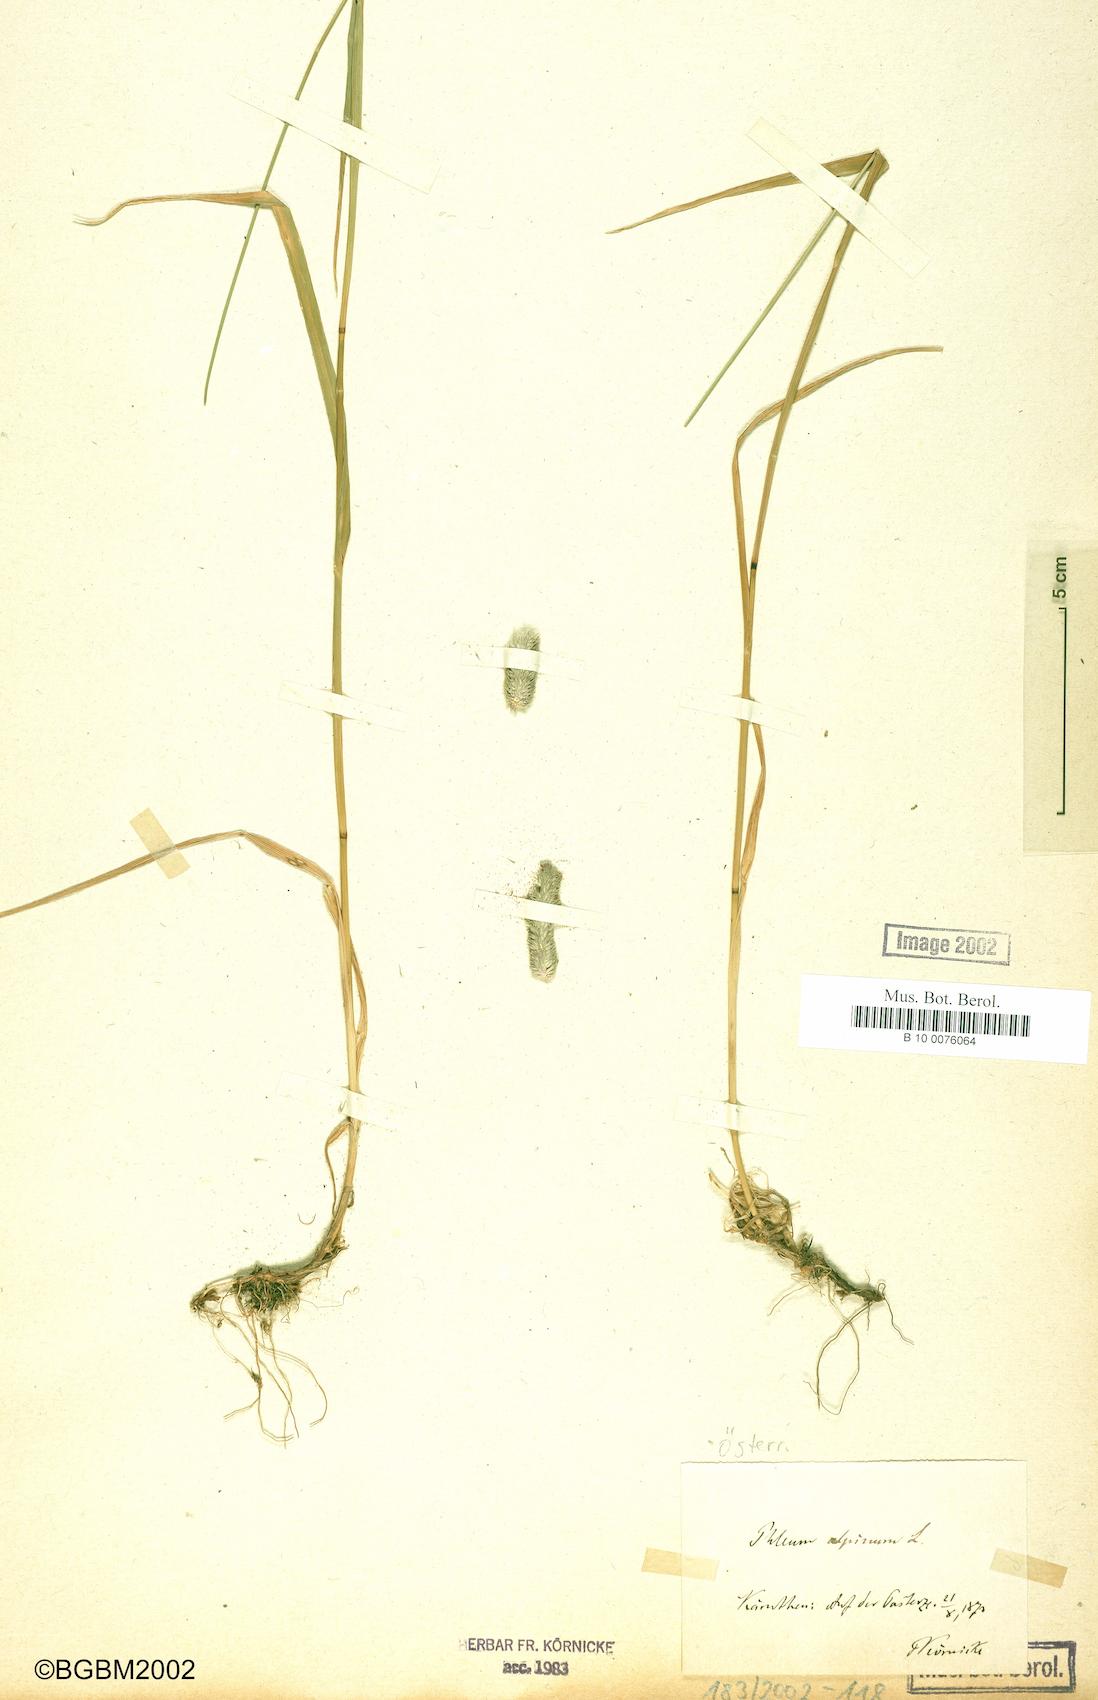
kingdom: Plantae
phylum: Tracheophyta
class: Liliopsida
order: Poales
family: Poaceae
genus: Phleum
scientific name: Phleum alpinum
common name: Alpine cat's-tail
